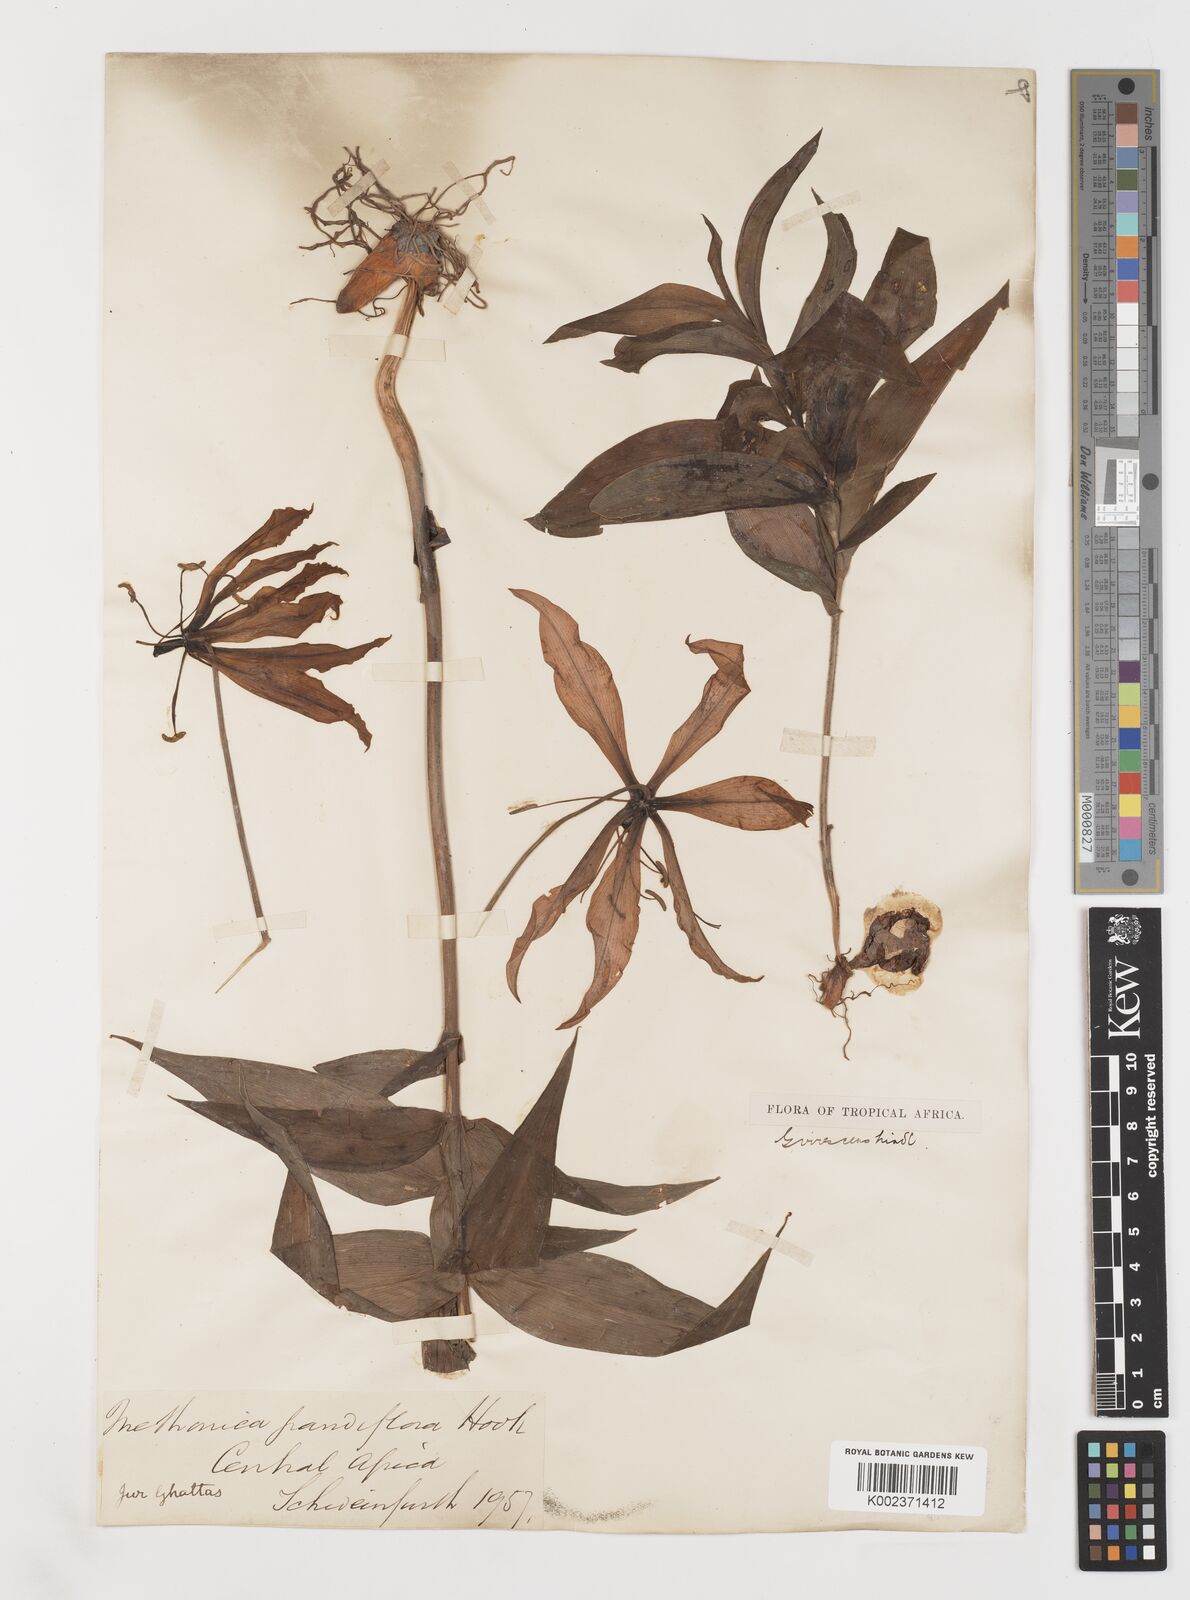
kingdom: Plantae
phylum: Tracheophyta
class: Liliopsida
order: Liliales
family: Colchicaceae
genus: Gloriosa
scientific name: Gloriosa simplex
